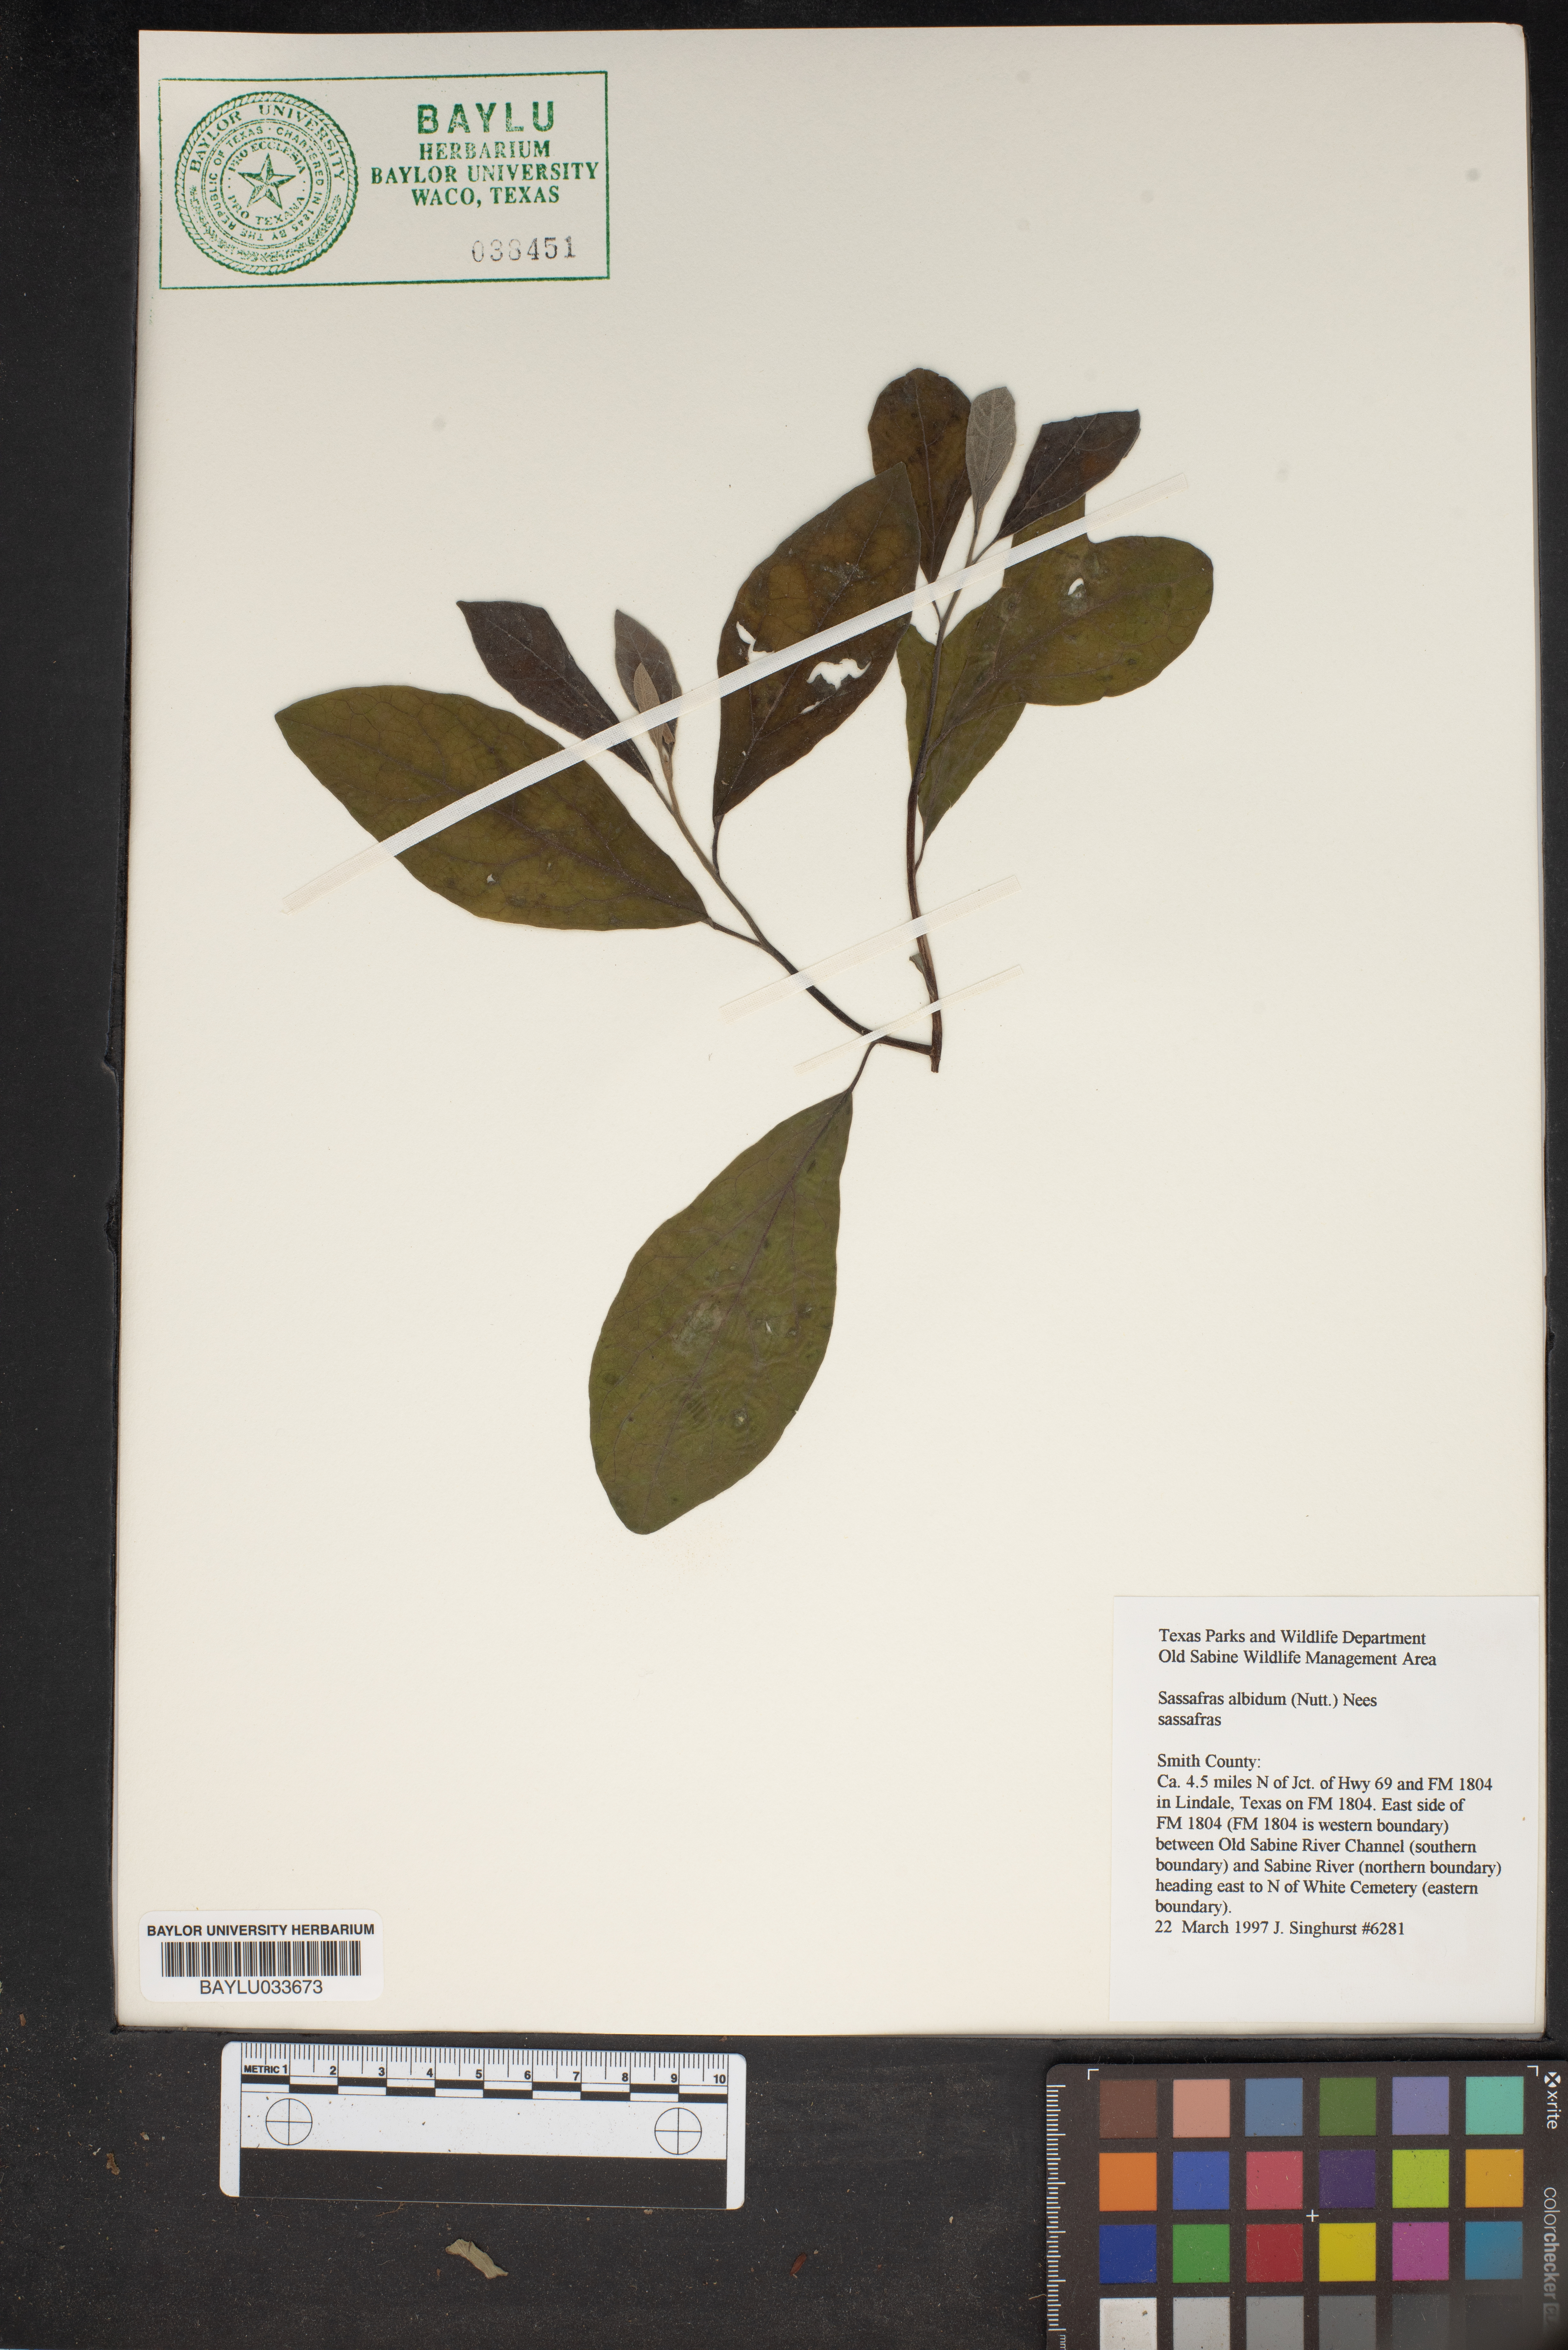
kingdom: Plantae
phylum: Tracheophyta
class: Magnoliopsida
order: Laurales
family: Lauraceae
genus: Sassafras
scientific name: Sassafras albidum
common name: Sassafras
